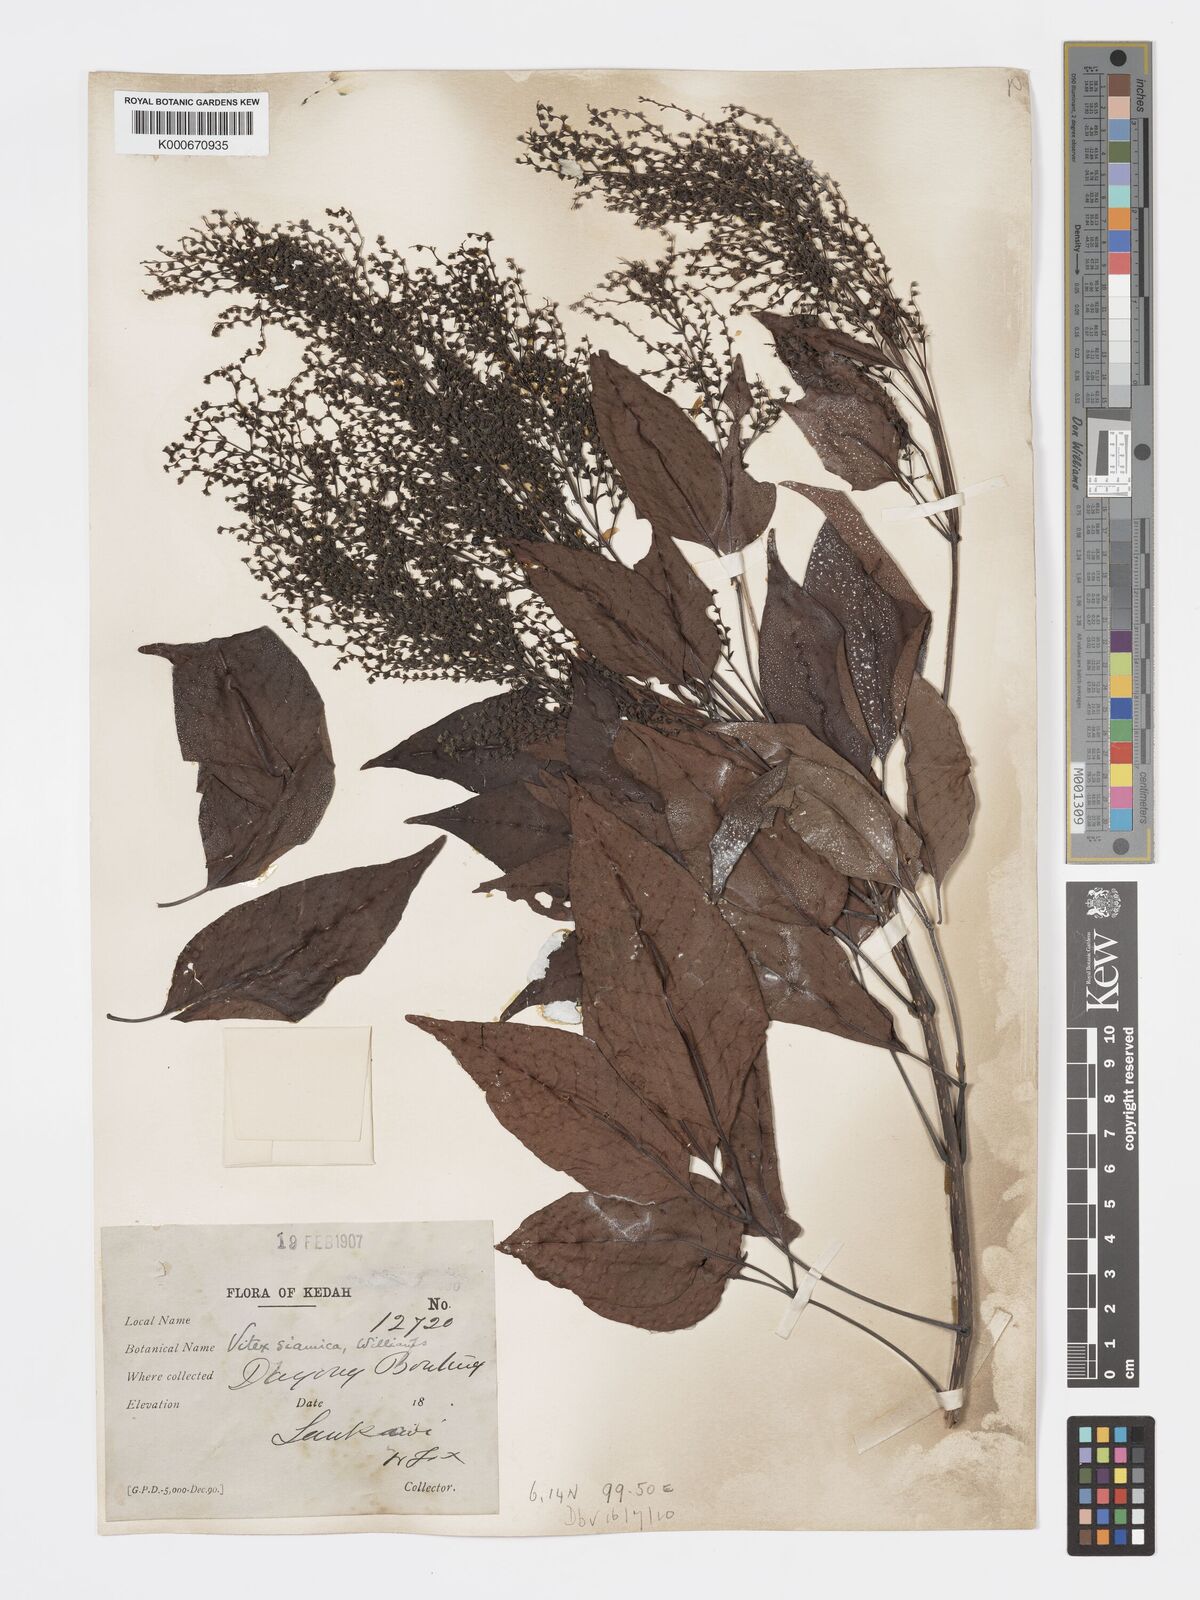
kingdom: Plantae
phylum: Tracheophyta
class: Magnoliopsida
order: Lamiales
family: Lamiaceae
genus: Vitex
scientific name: Vitex siamica
